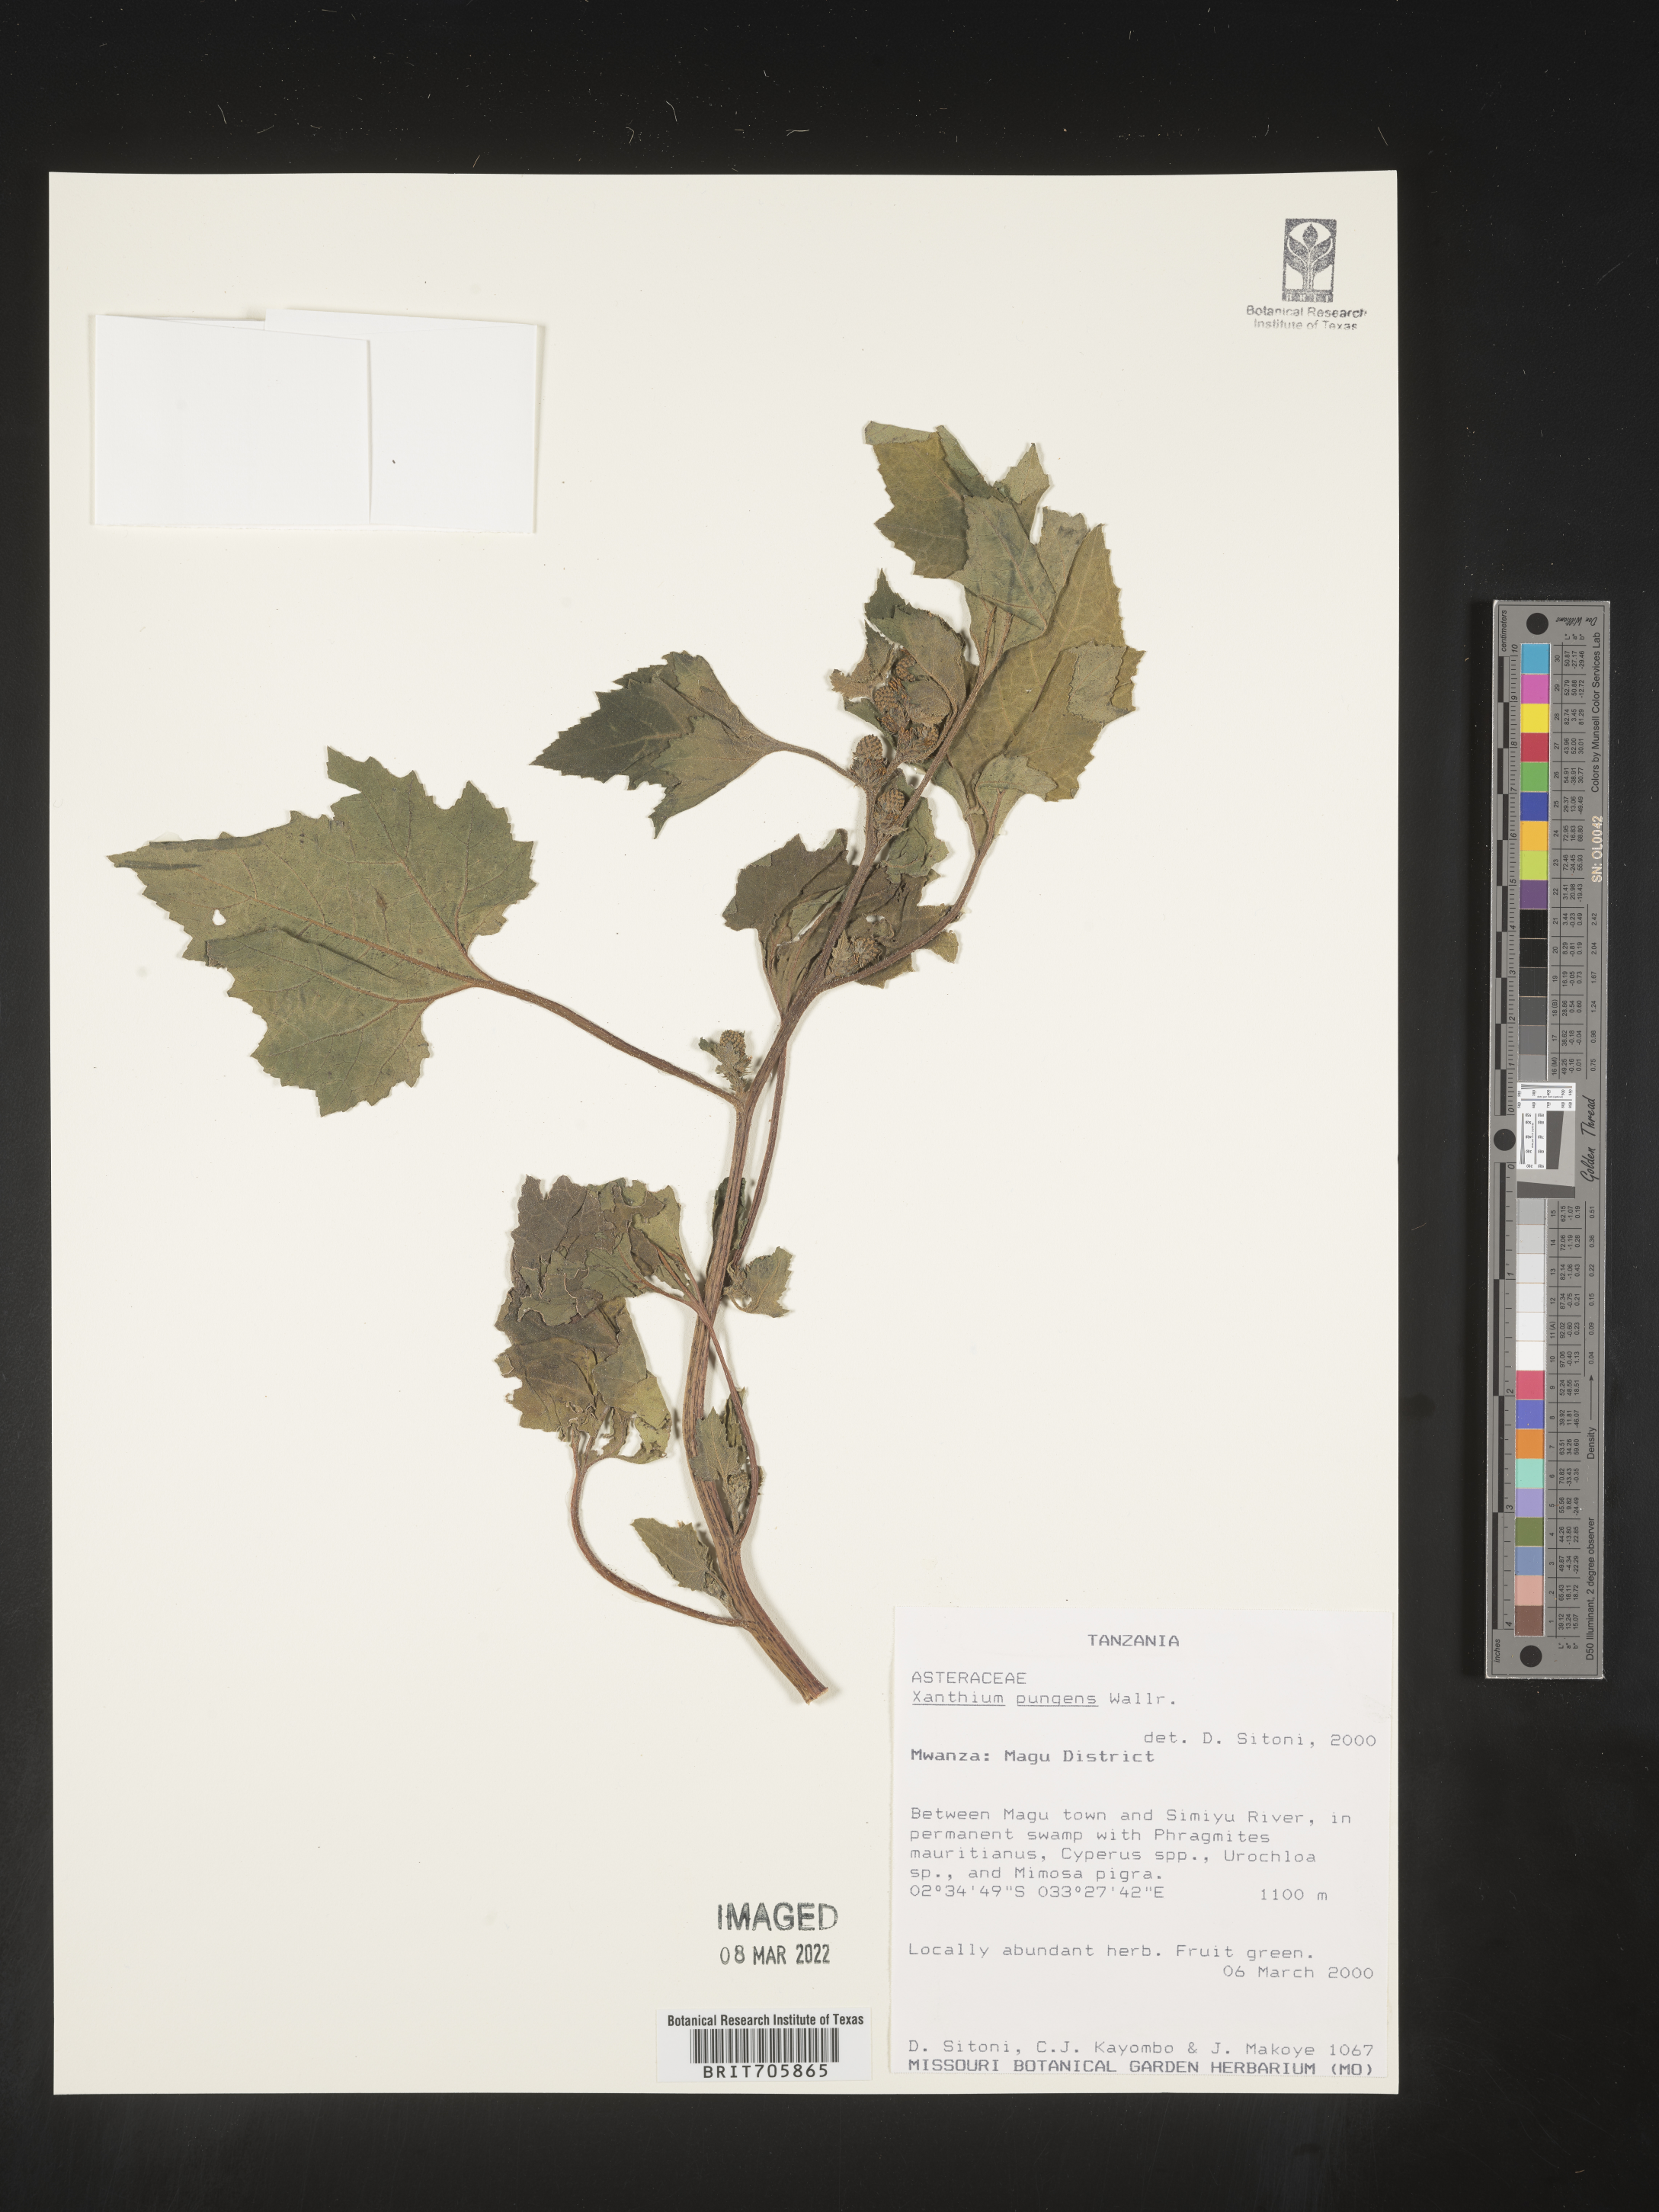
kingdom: Plantae
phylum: Tracheophyta
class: Magnoliopsida
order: Asterales
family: Asteraceae
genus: Xanthium
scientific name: Xanthium
